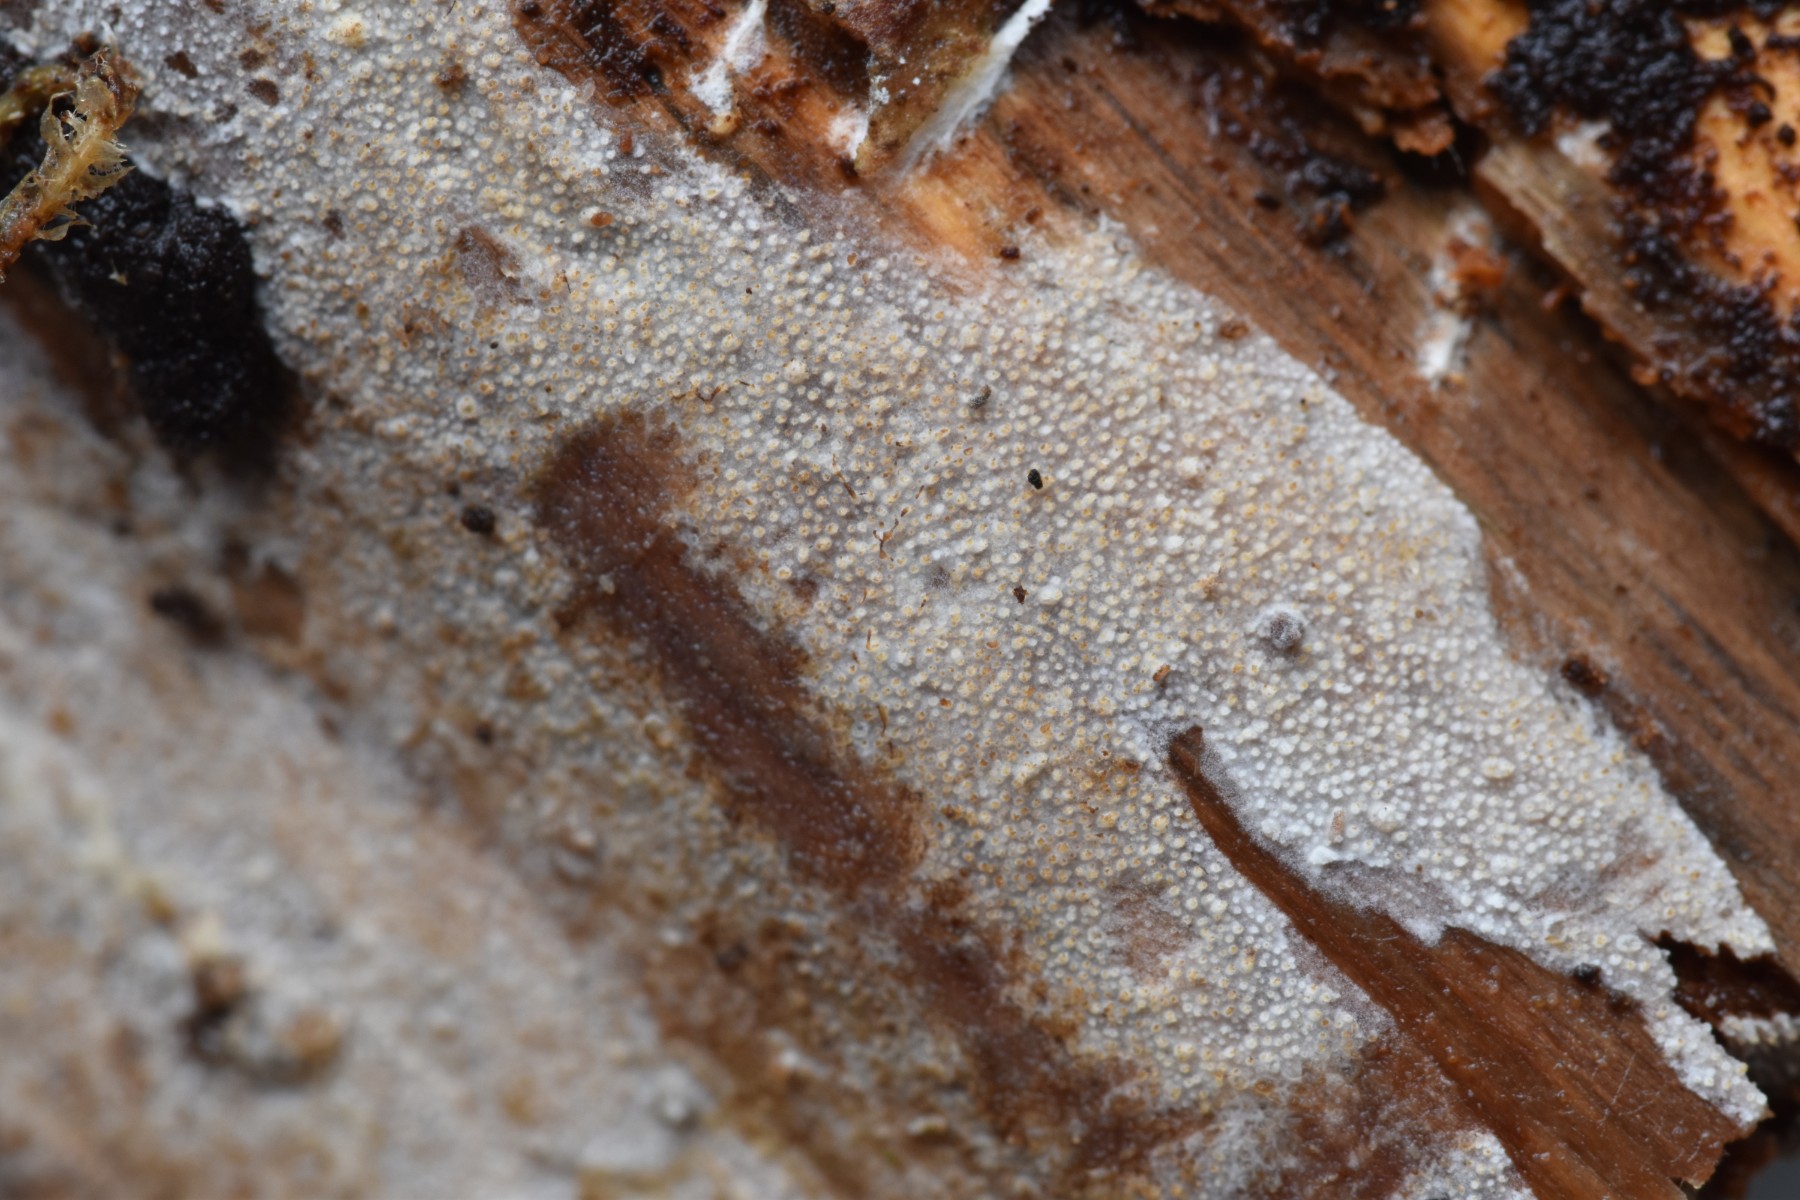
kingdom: Fungi
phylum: Basidiomycota
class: Agaricomycetes
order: Hymenochaetales
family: Rickenellaceae
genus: Resinicium
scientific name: Resinicium bicolor
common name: almindelig vokstand
